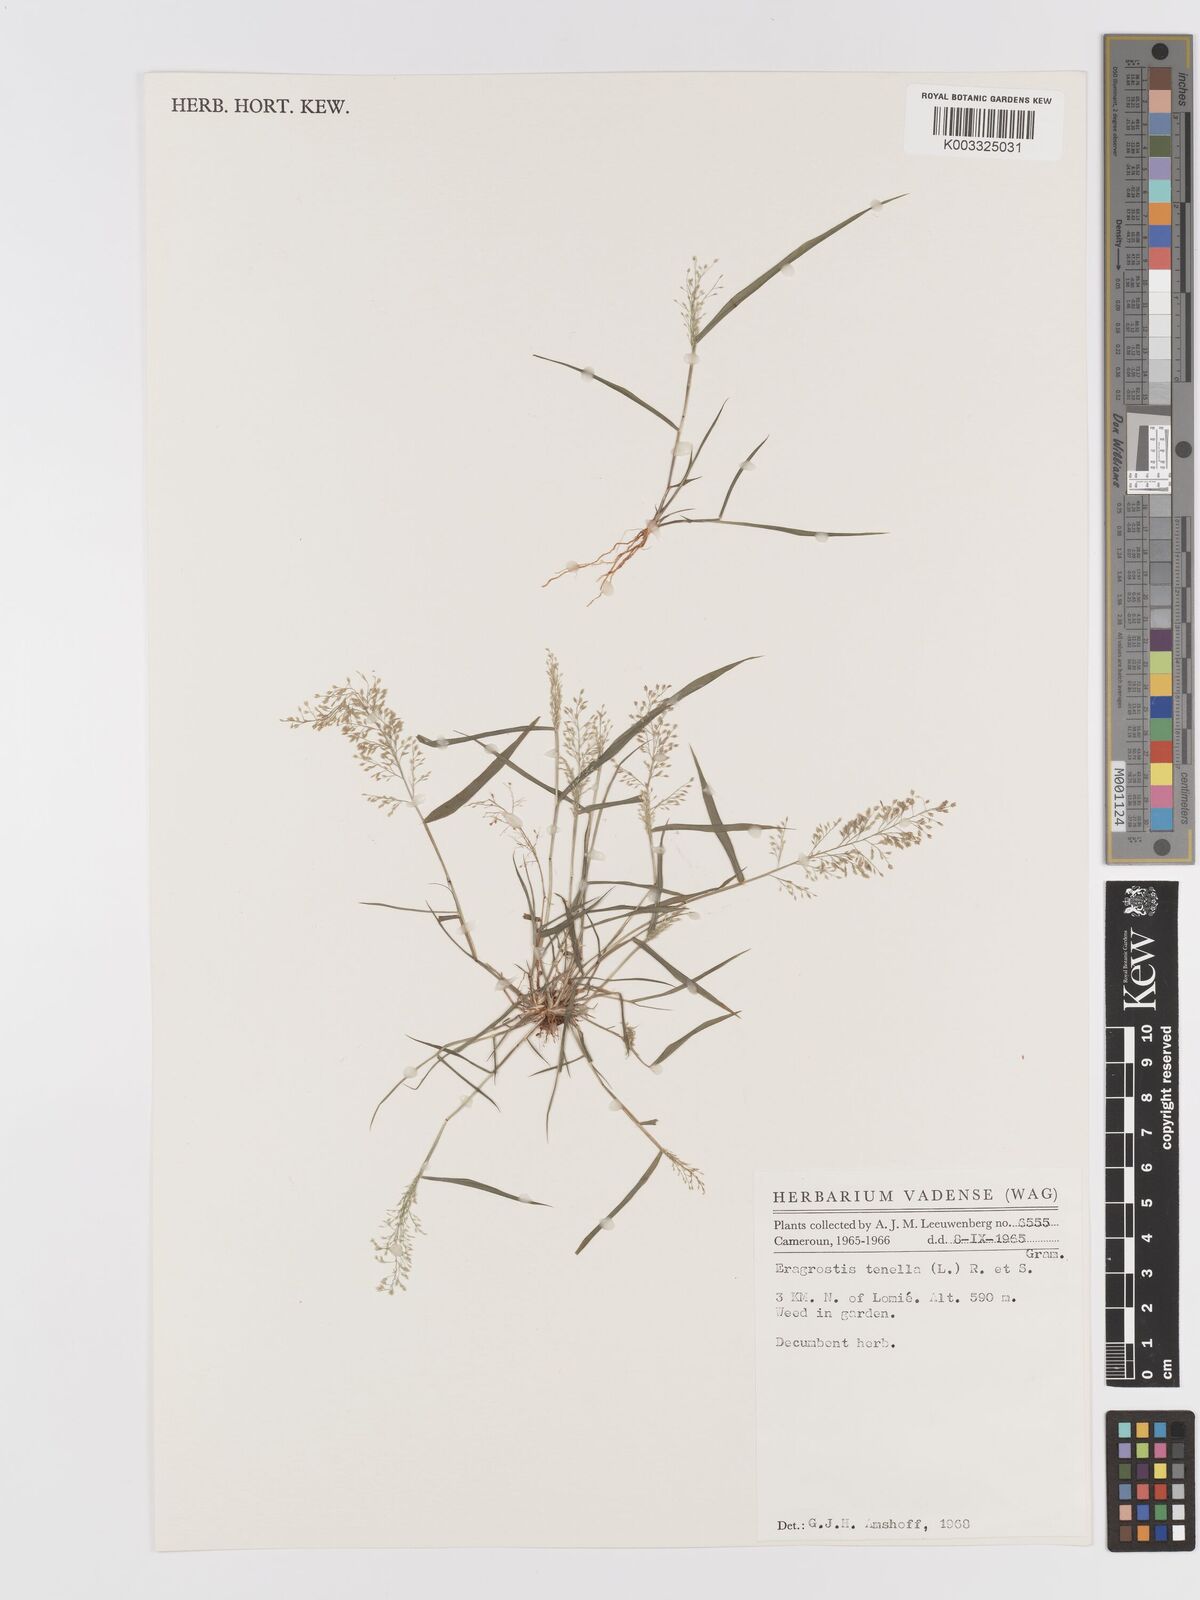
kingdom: Plantae
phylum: Tracheophyta
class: Liliopsida
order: Poales
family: Poaceae
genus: Eragrostis
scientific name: Eragrostis tenella
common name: Japanese lovegrass
